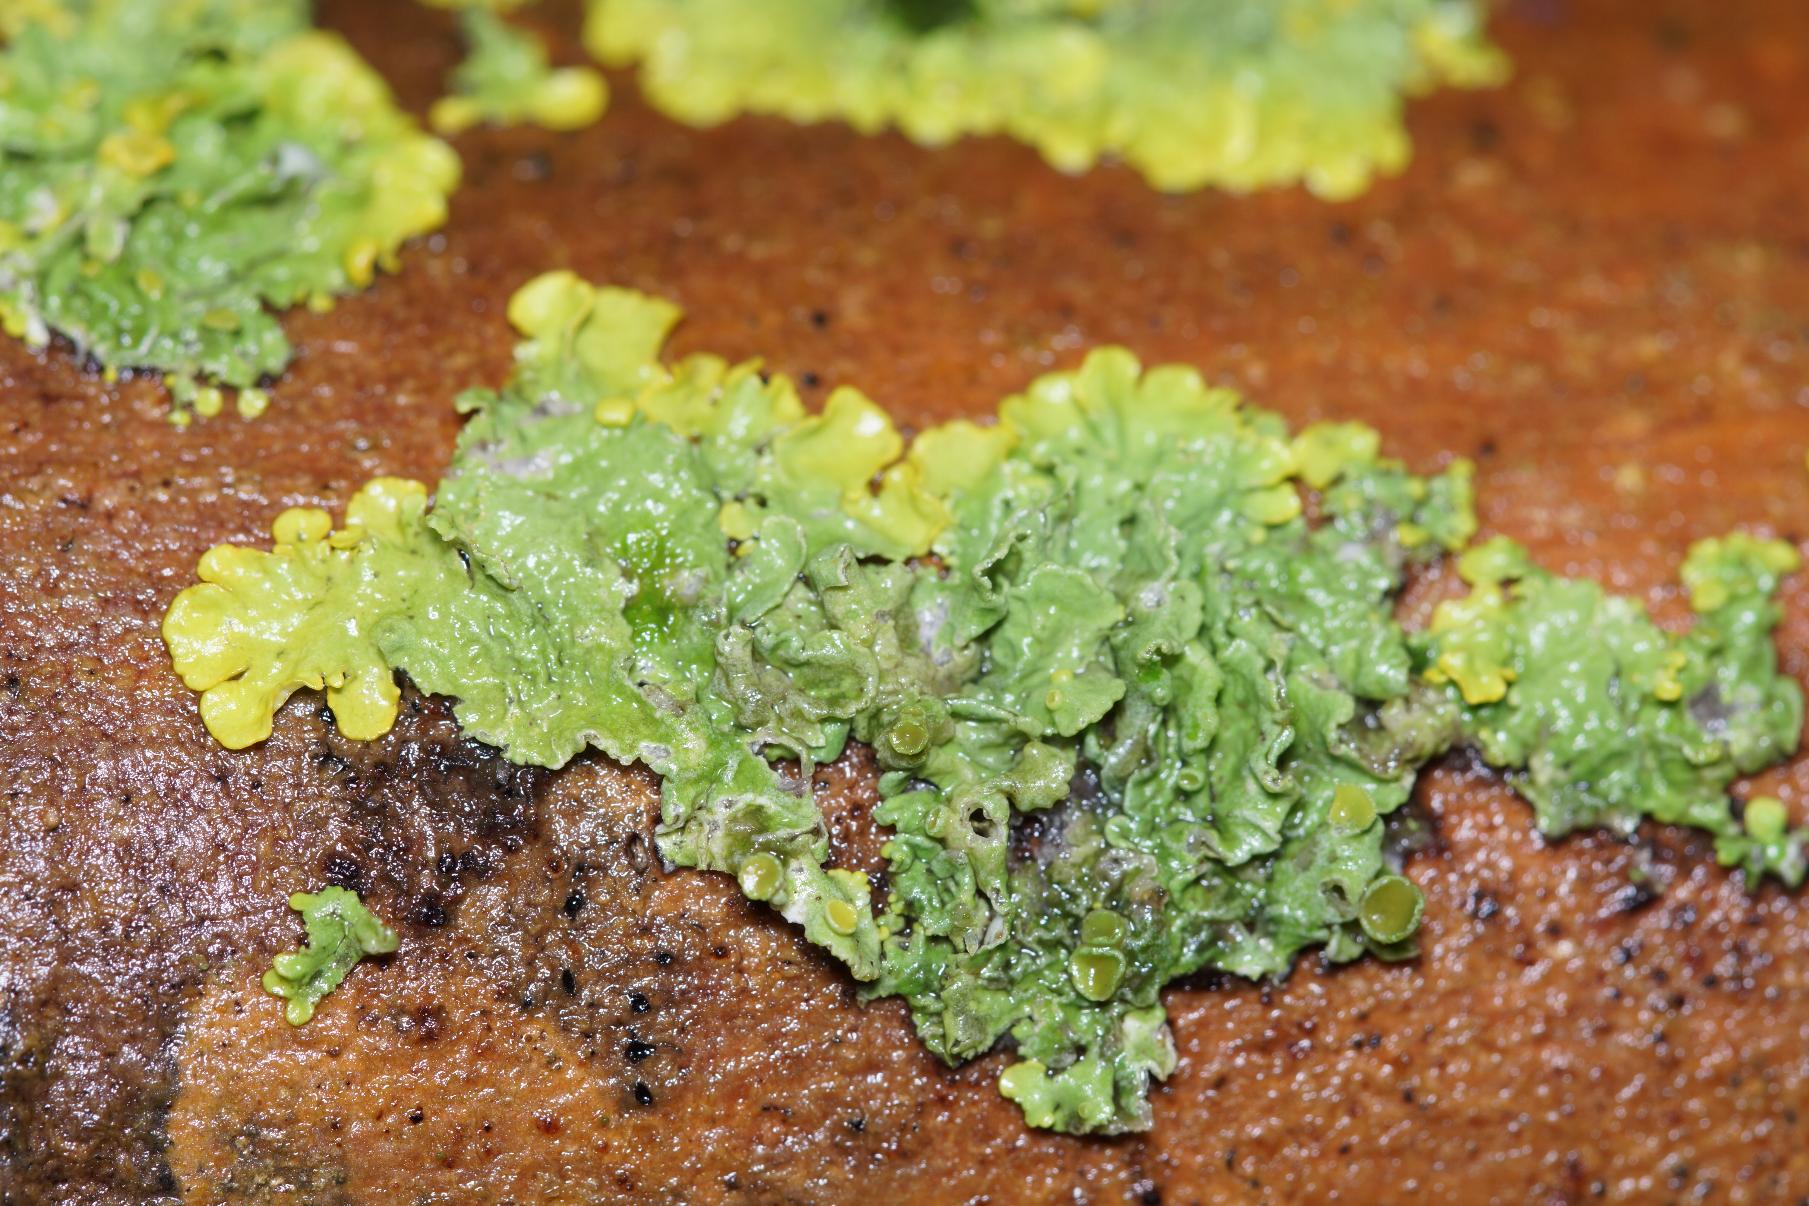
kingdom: Fungi
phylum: Ascomycota
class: Lecanoromycetes
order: Teloschistales
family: Teloschistaceae
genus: Xanthoria
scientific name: Xanthoria parietina
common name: Almindelig væggelav
